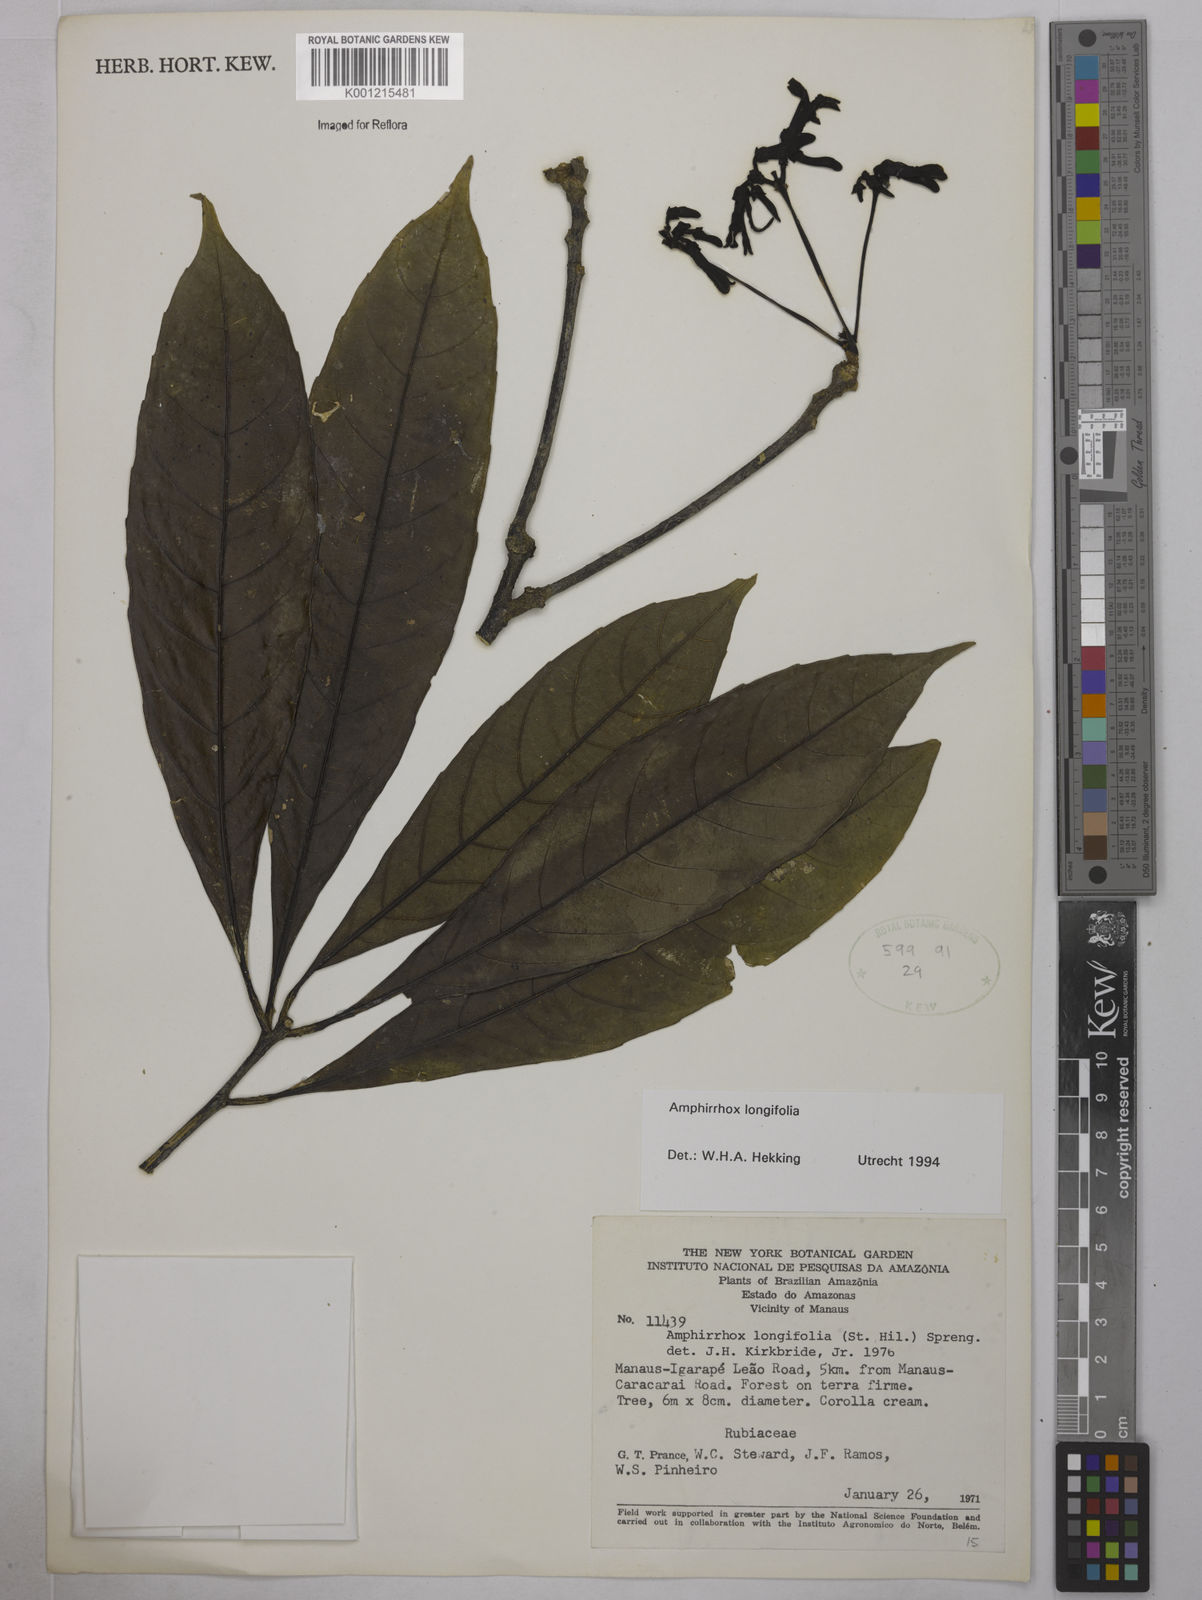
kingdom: Plantae
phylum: Tracheophyta
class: Magnoliopsida
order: Malpighiales
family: Violaceae
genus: Amphirrhox
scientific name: Amphirrhox longifolia
